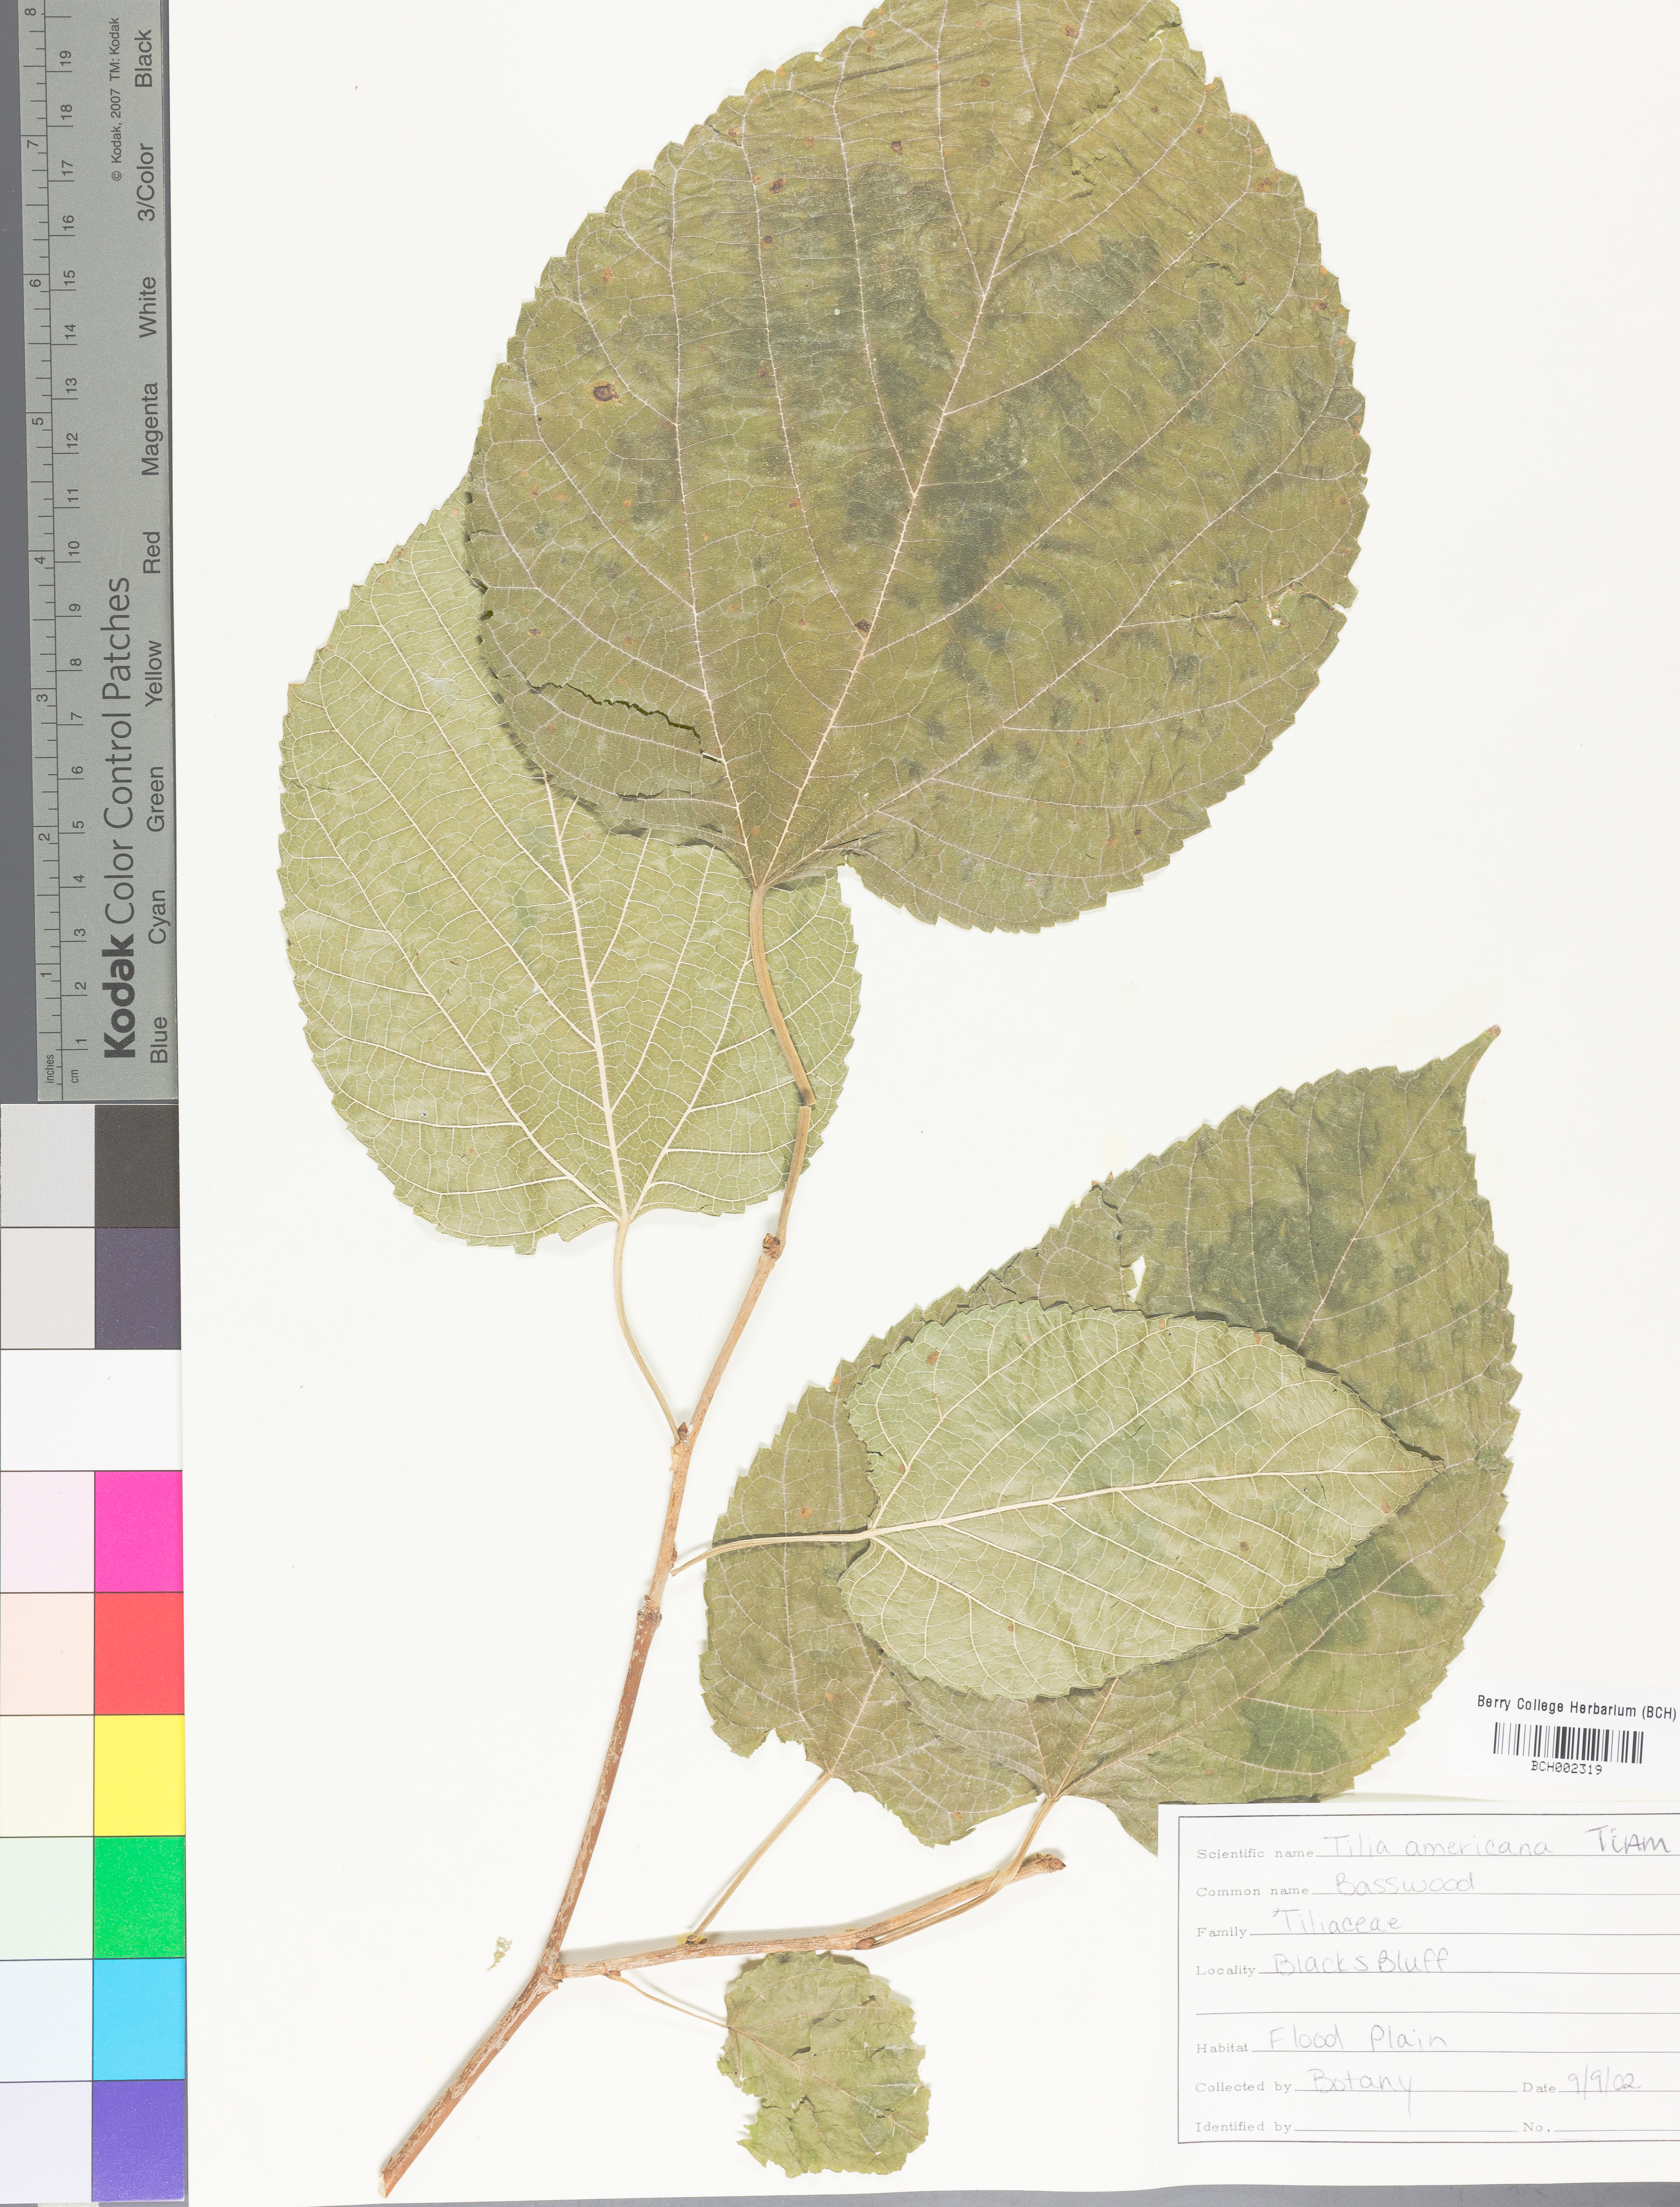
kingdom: Plantae
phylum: Tracheophyta
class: Magnoliopsida
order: Malvales
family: Malvaceae
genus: Tilia
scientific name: Tilia americana
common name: Basswood
